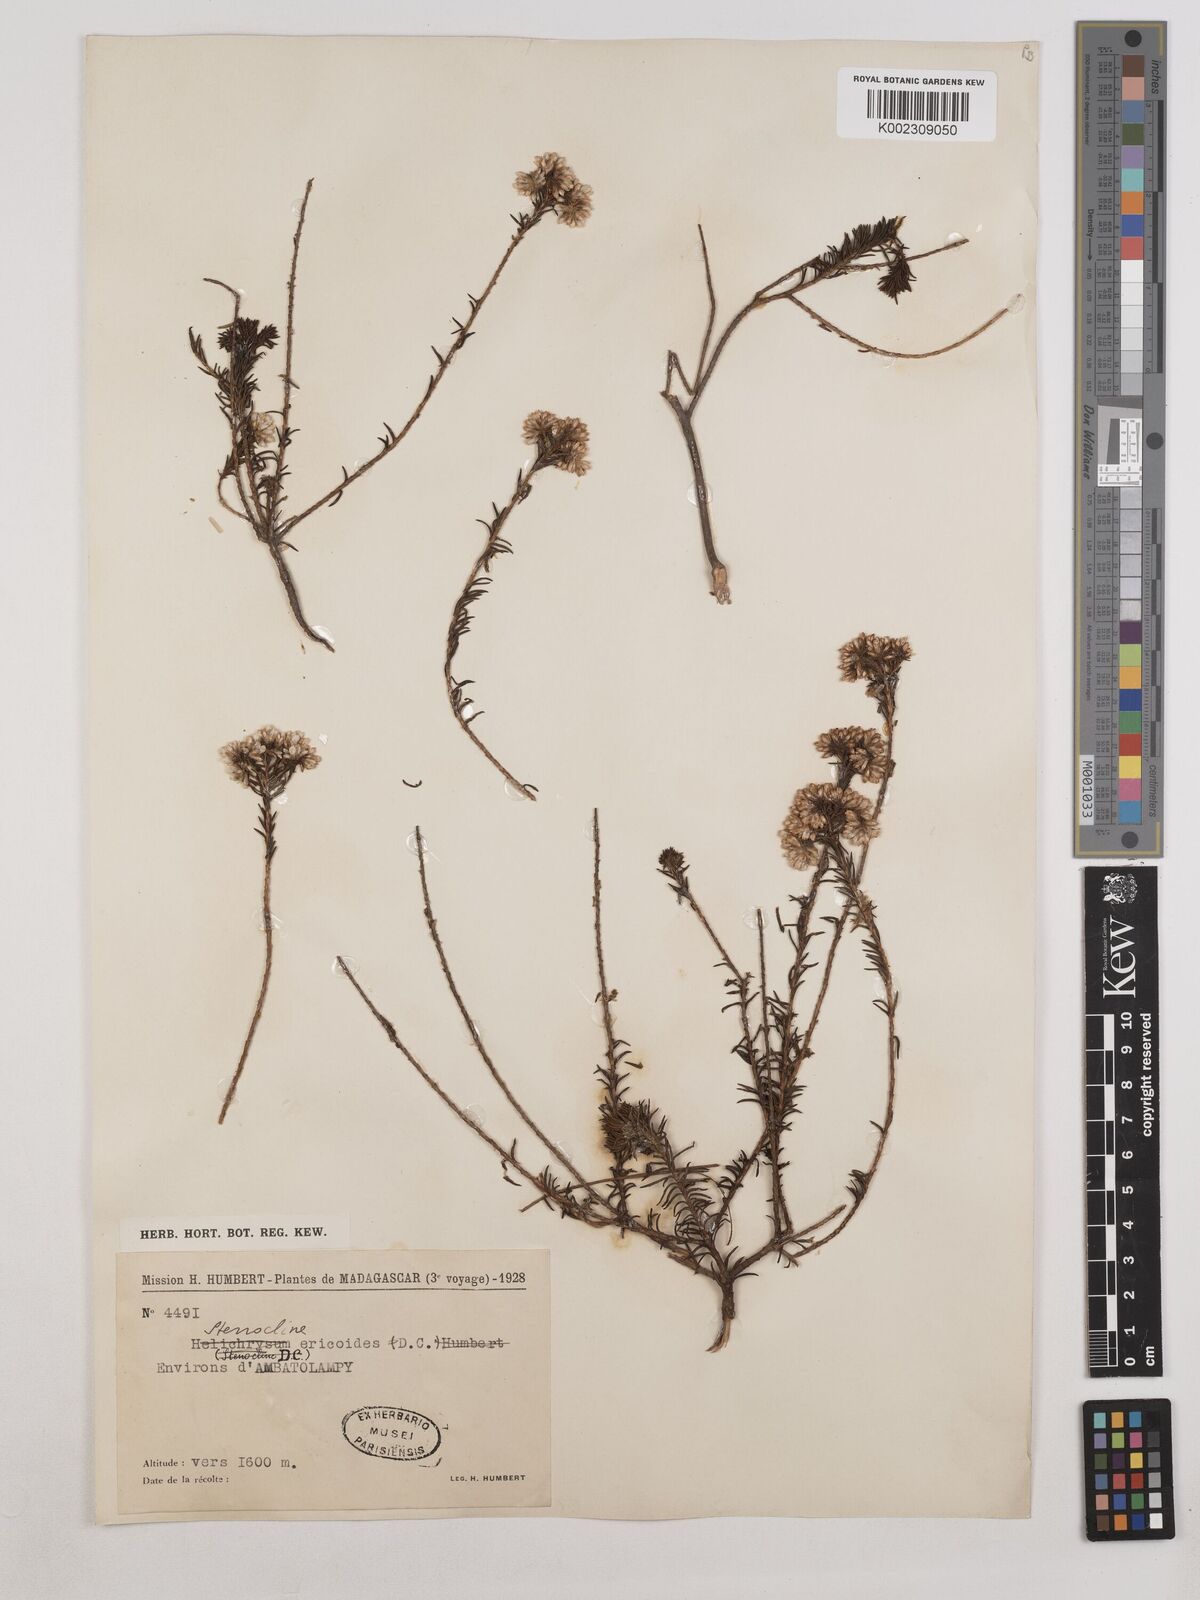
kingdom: Plantae
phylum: Tracheophyta
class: Magnoliopsida
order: Asterales
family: Asteraceae
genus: Stenocline
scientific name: Stenocline ericoides
